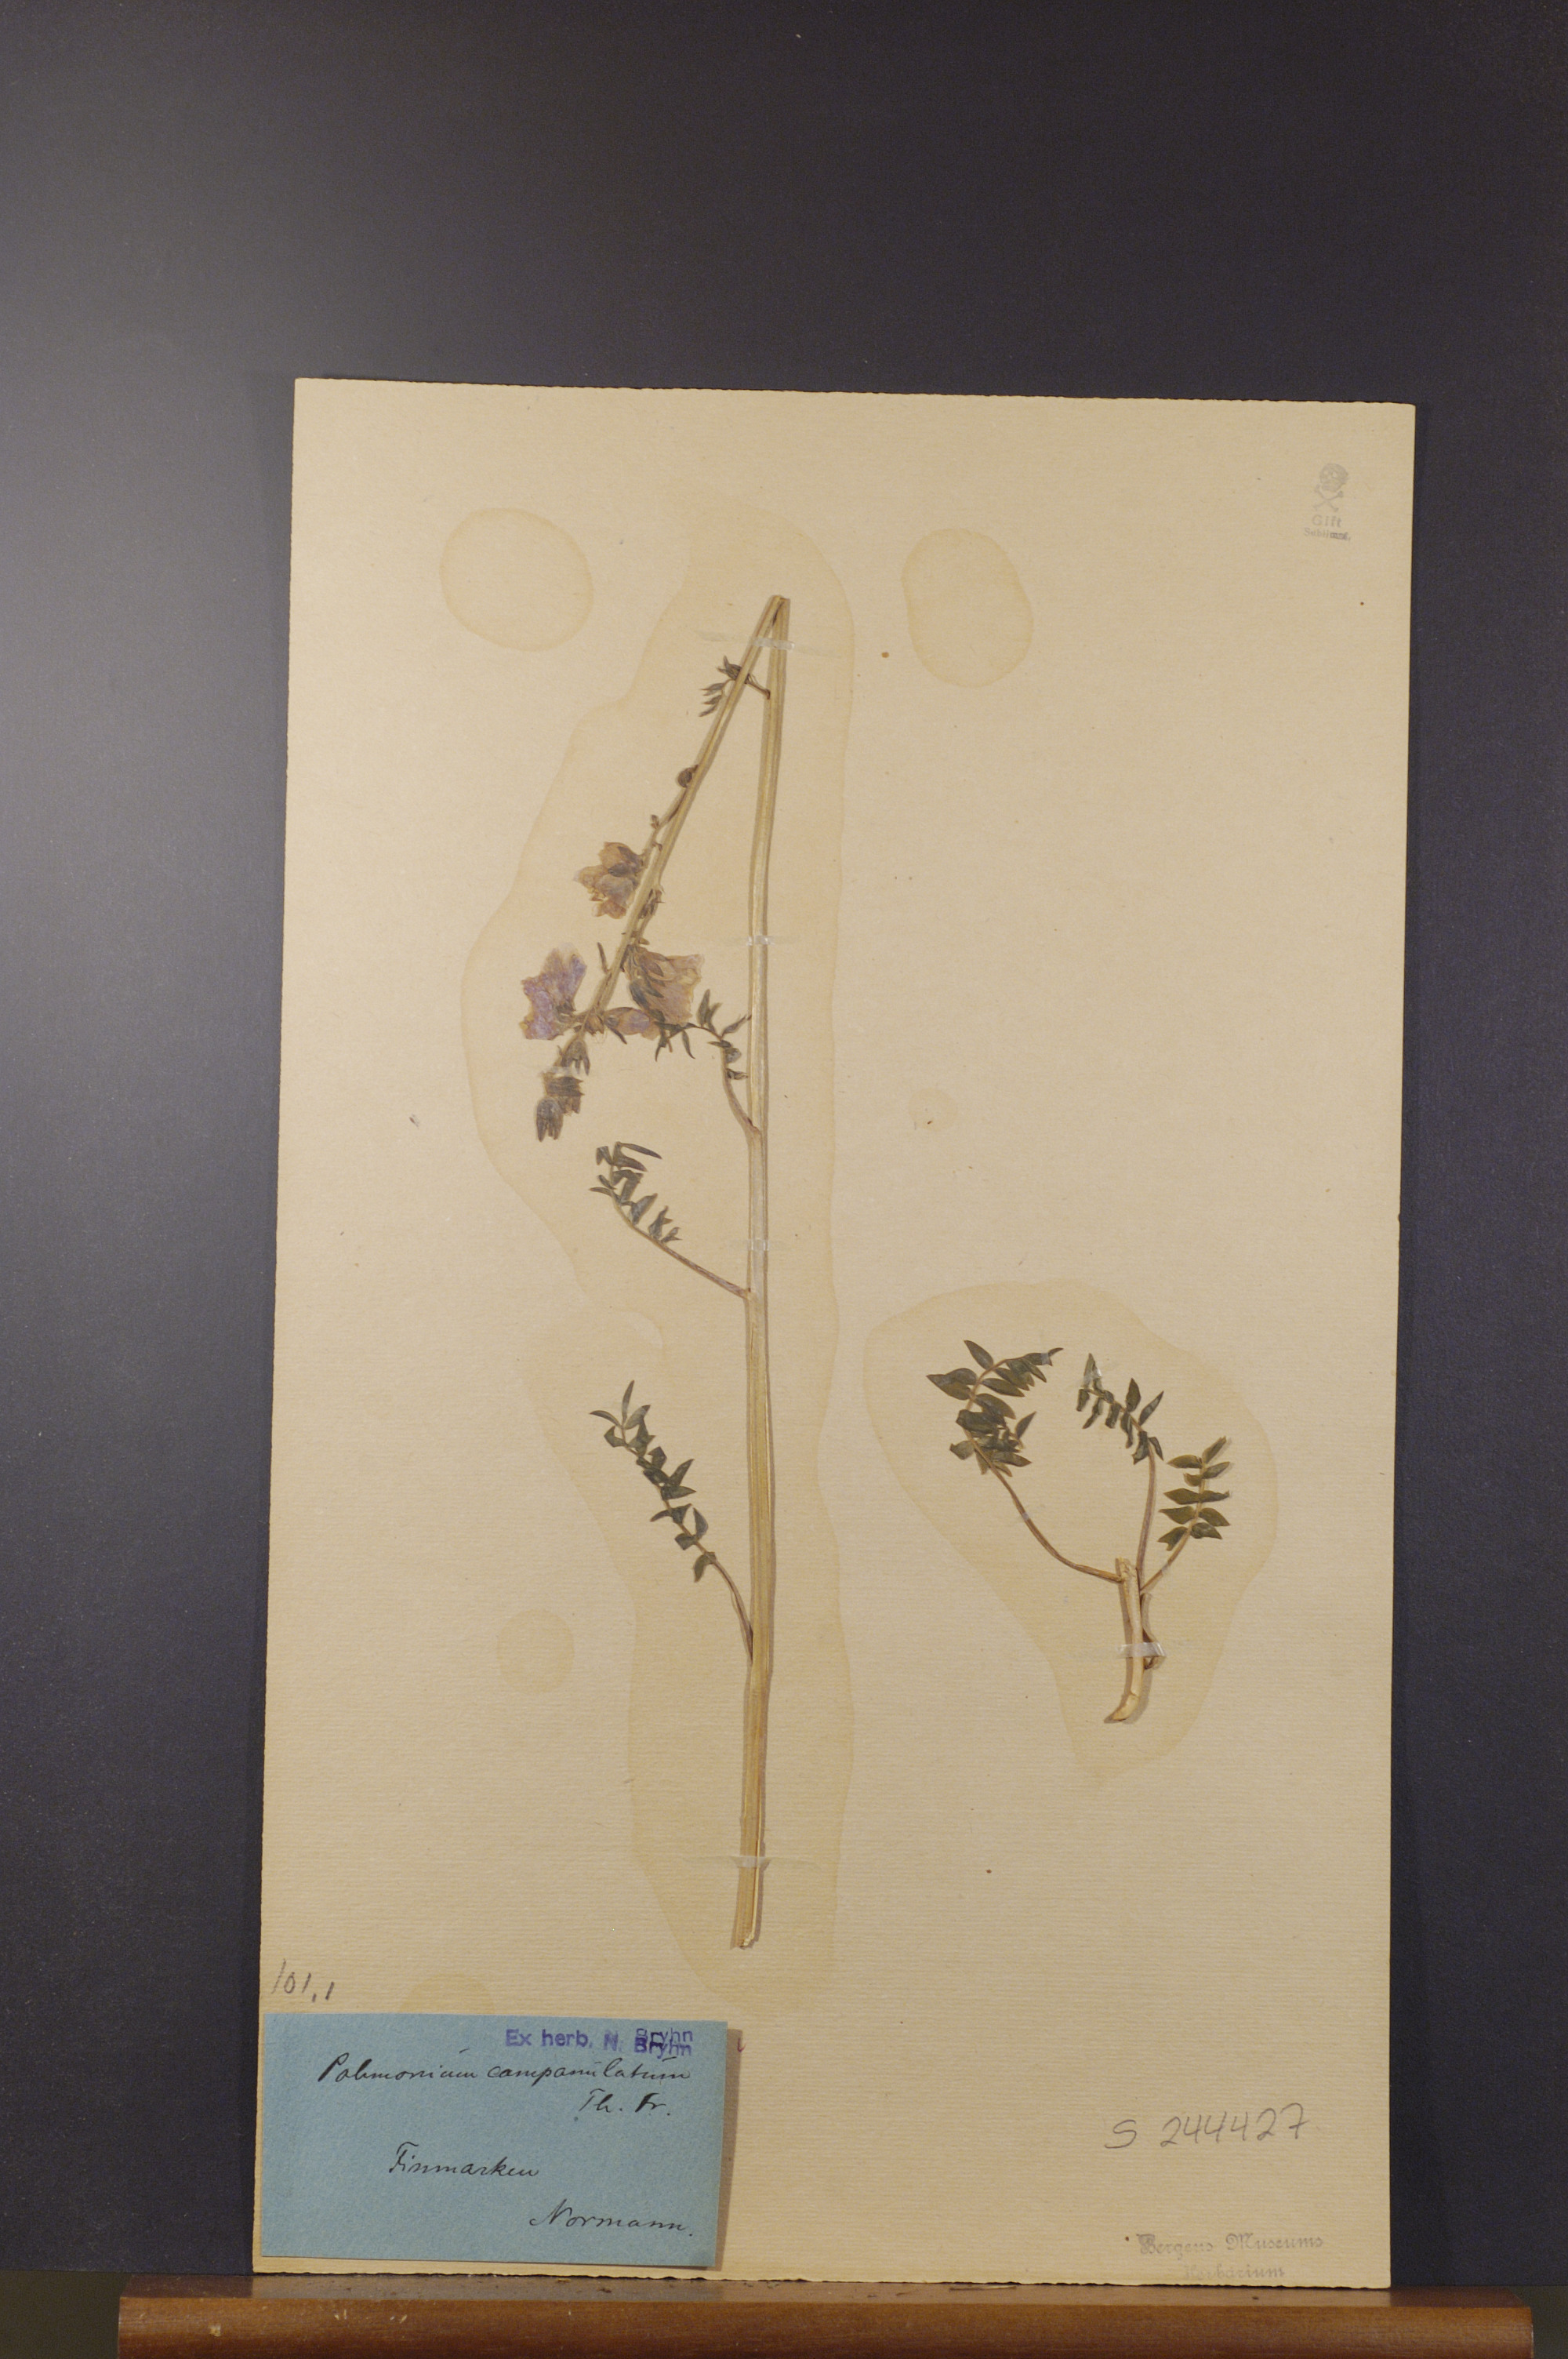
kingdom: Plantae
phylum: Tracheophyta
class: Magnoliopsida
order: Ericales
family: Polemoniaceae
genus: Polemonium
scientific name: Polemonium villosum
